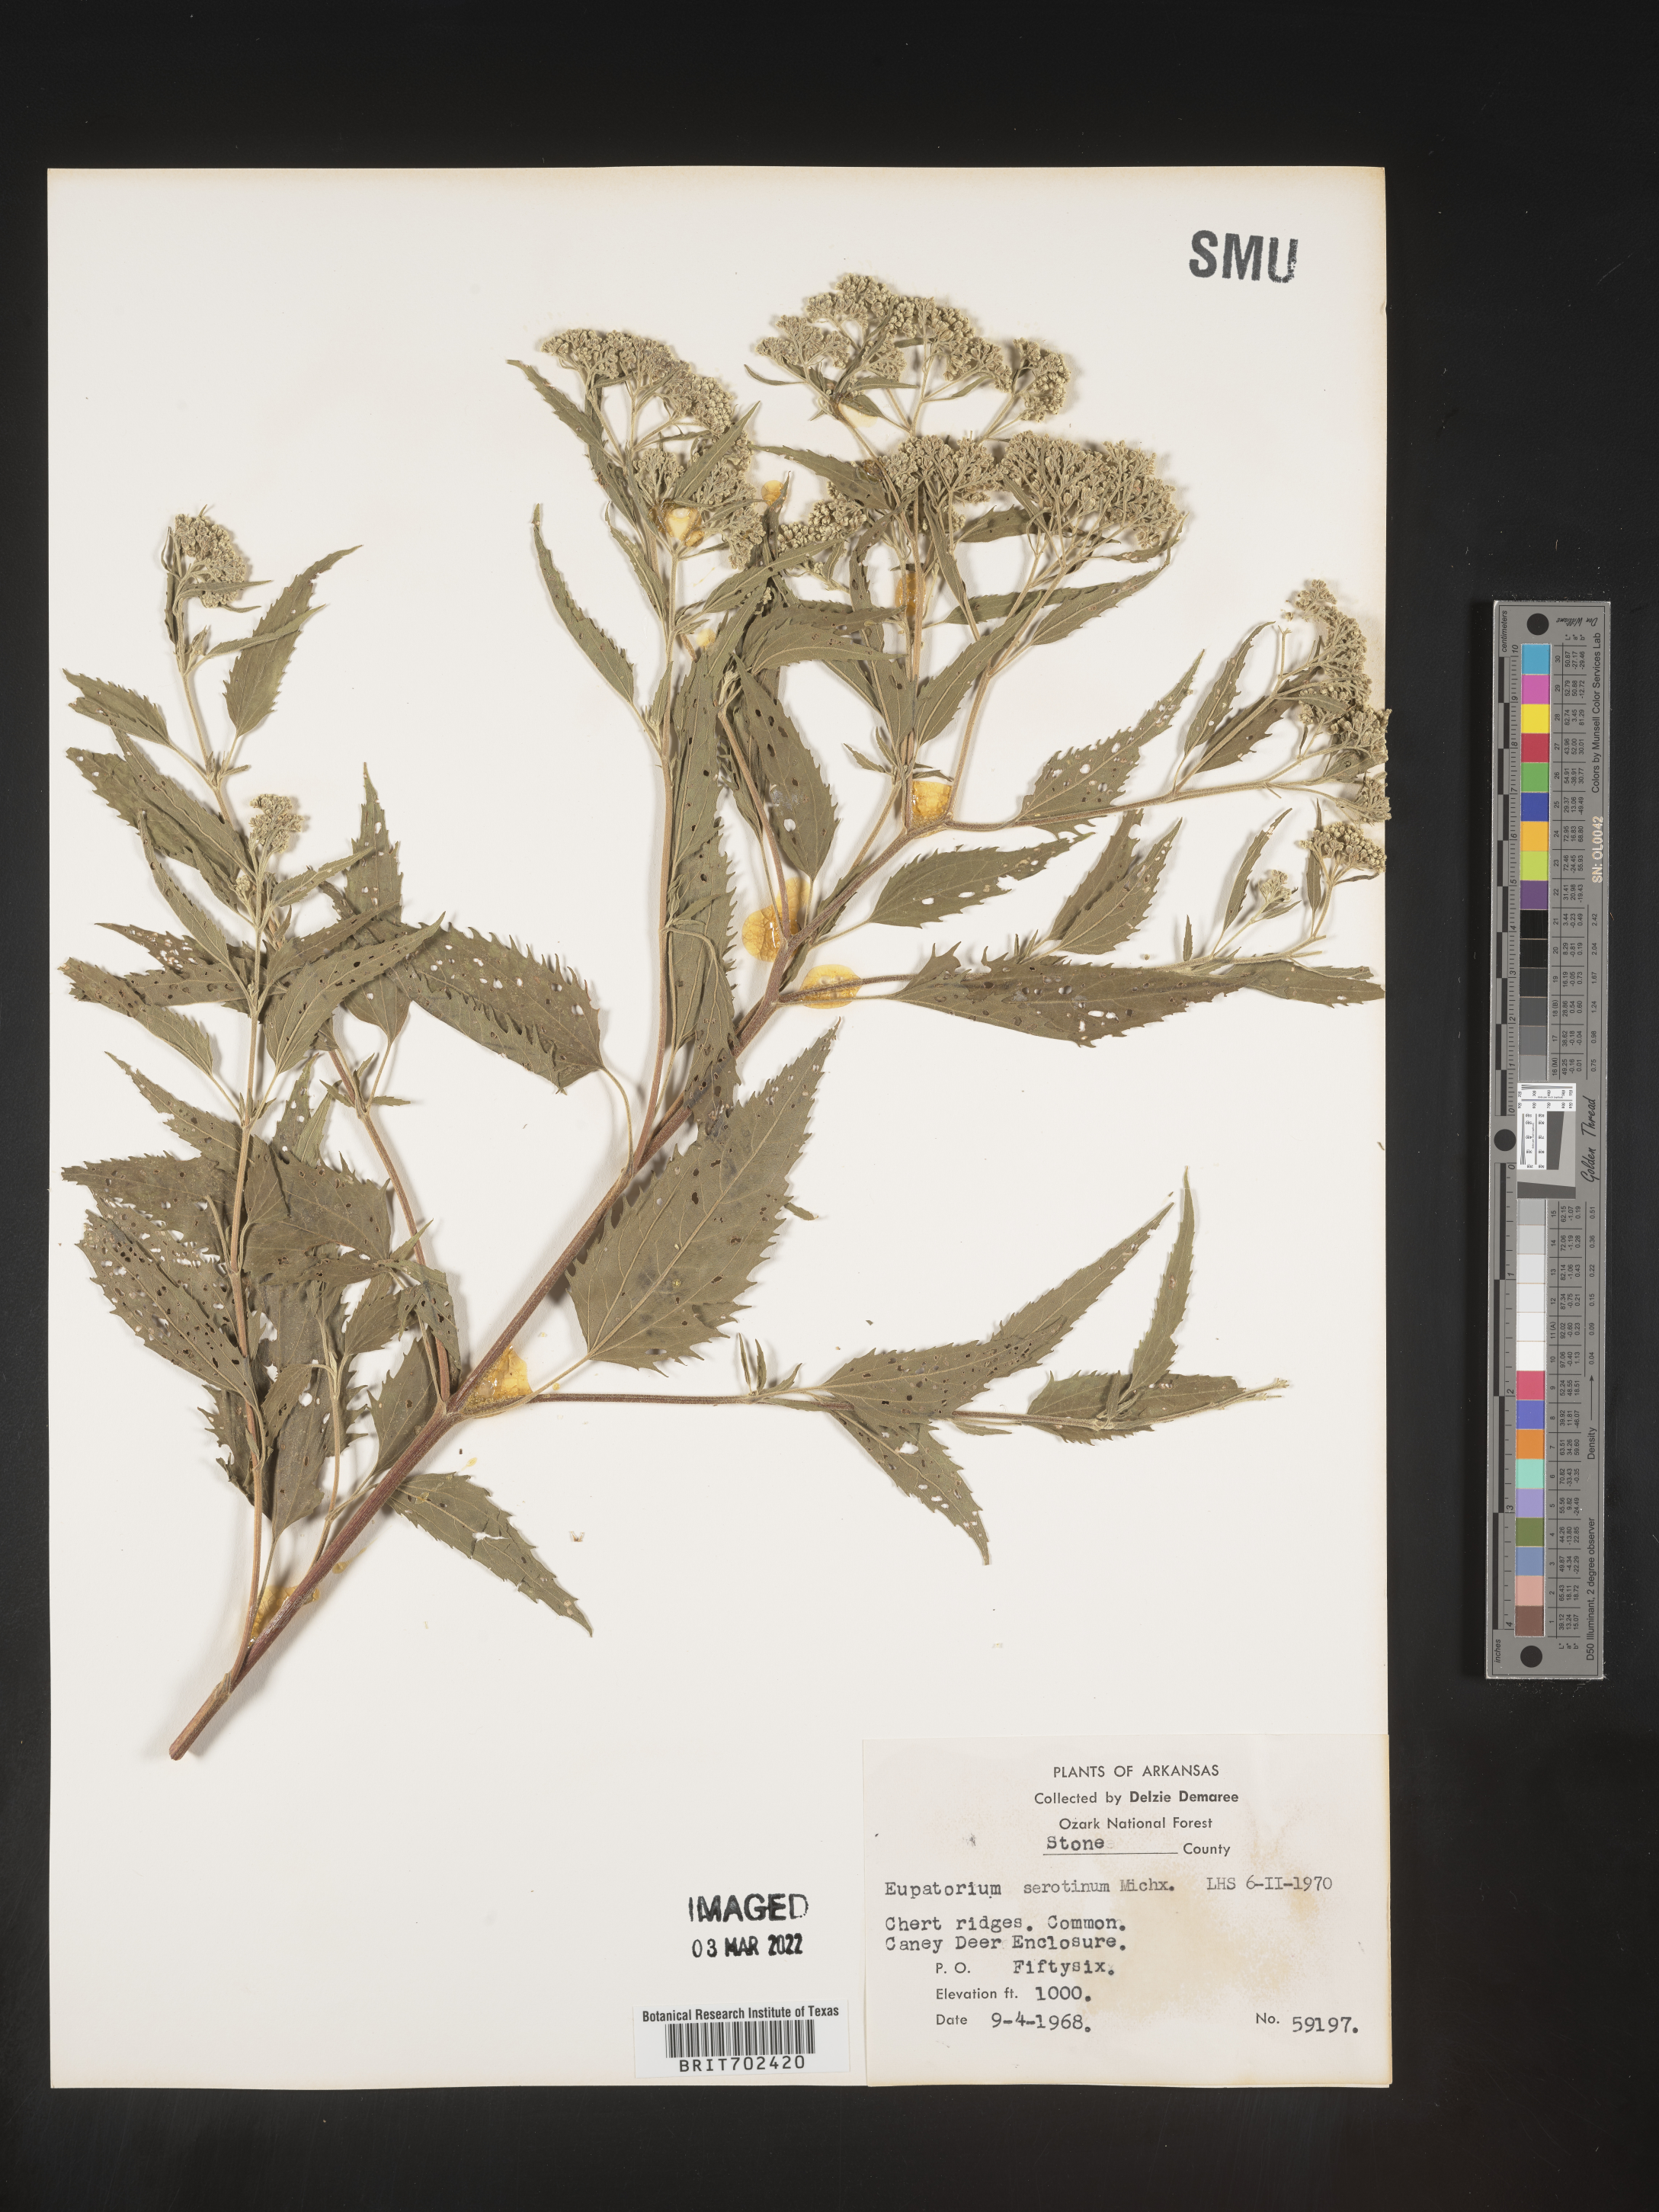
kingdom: Plantae
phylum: Tracheophyta
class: Magnoliopsida
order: Asterales
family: Asteraceae
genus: Eupatorium
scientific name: Eupatorium serotinum
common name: Late boneset
